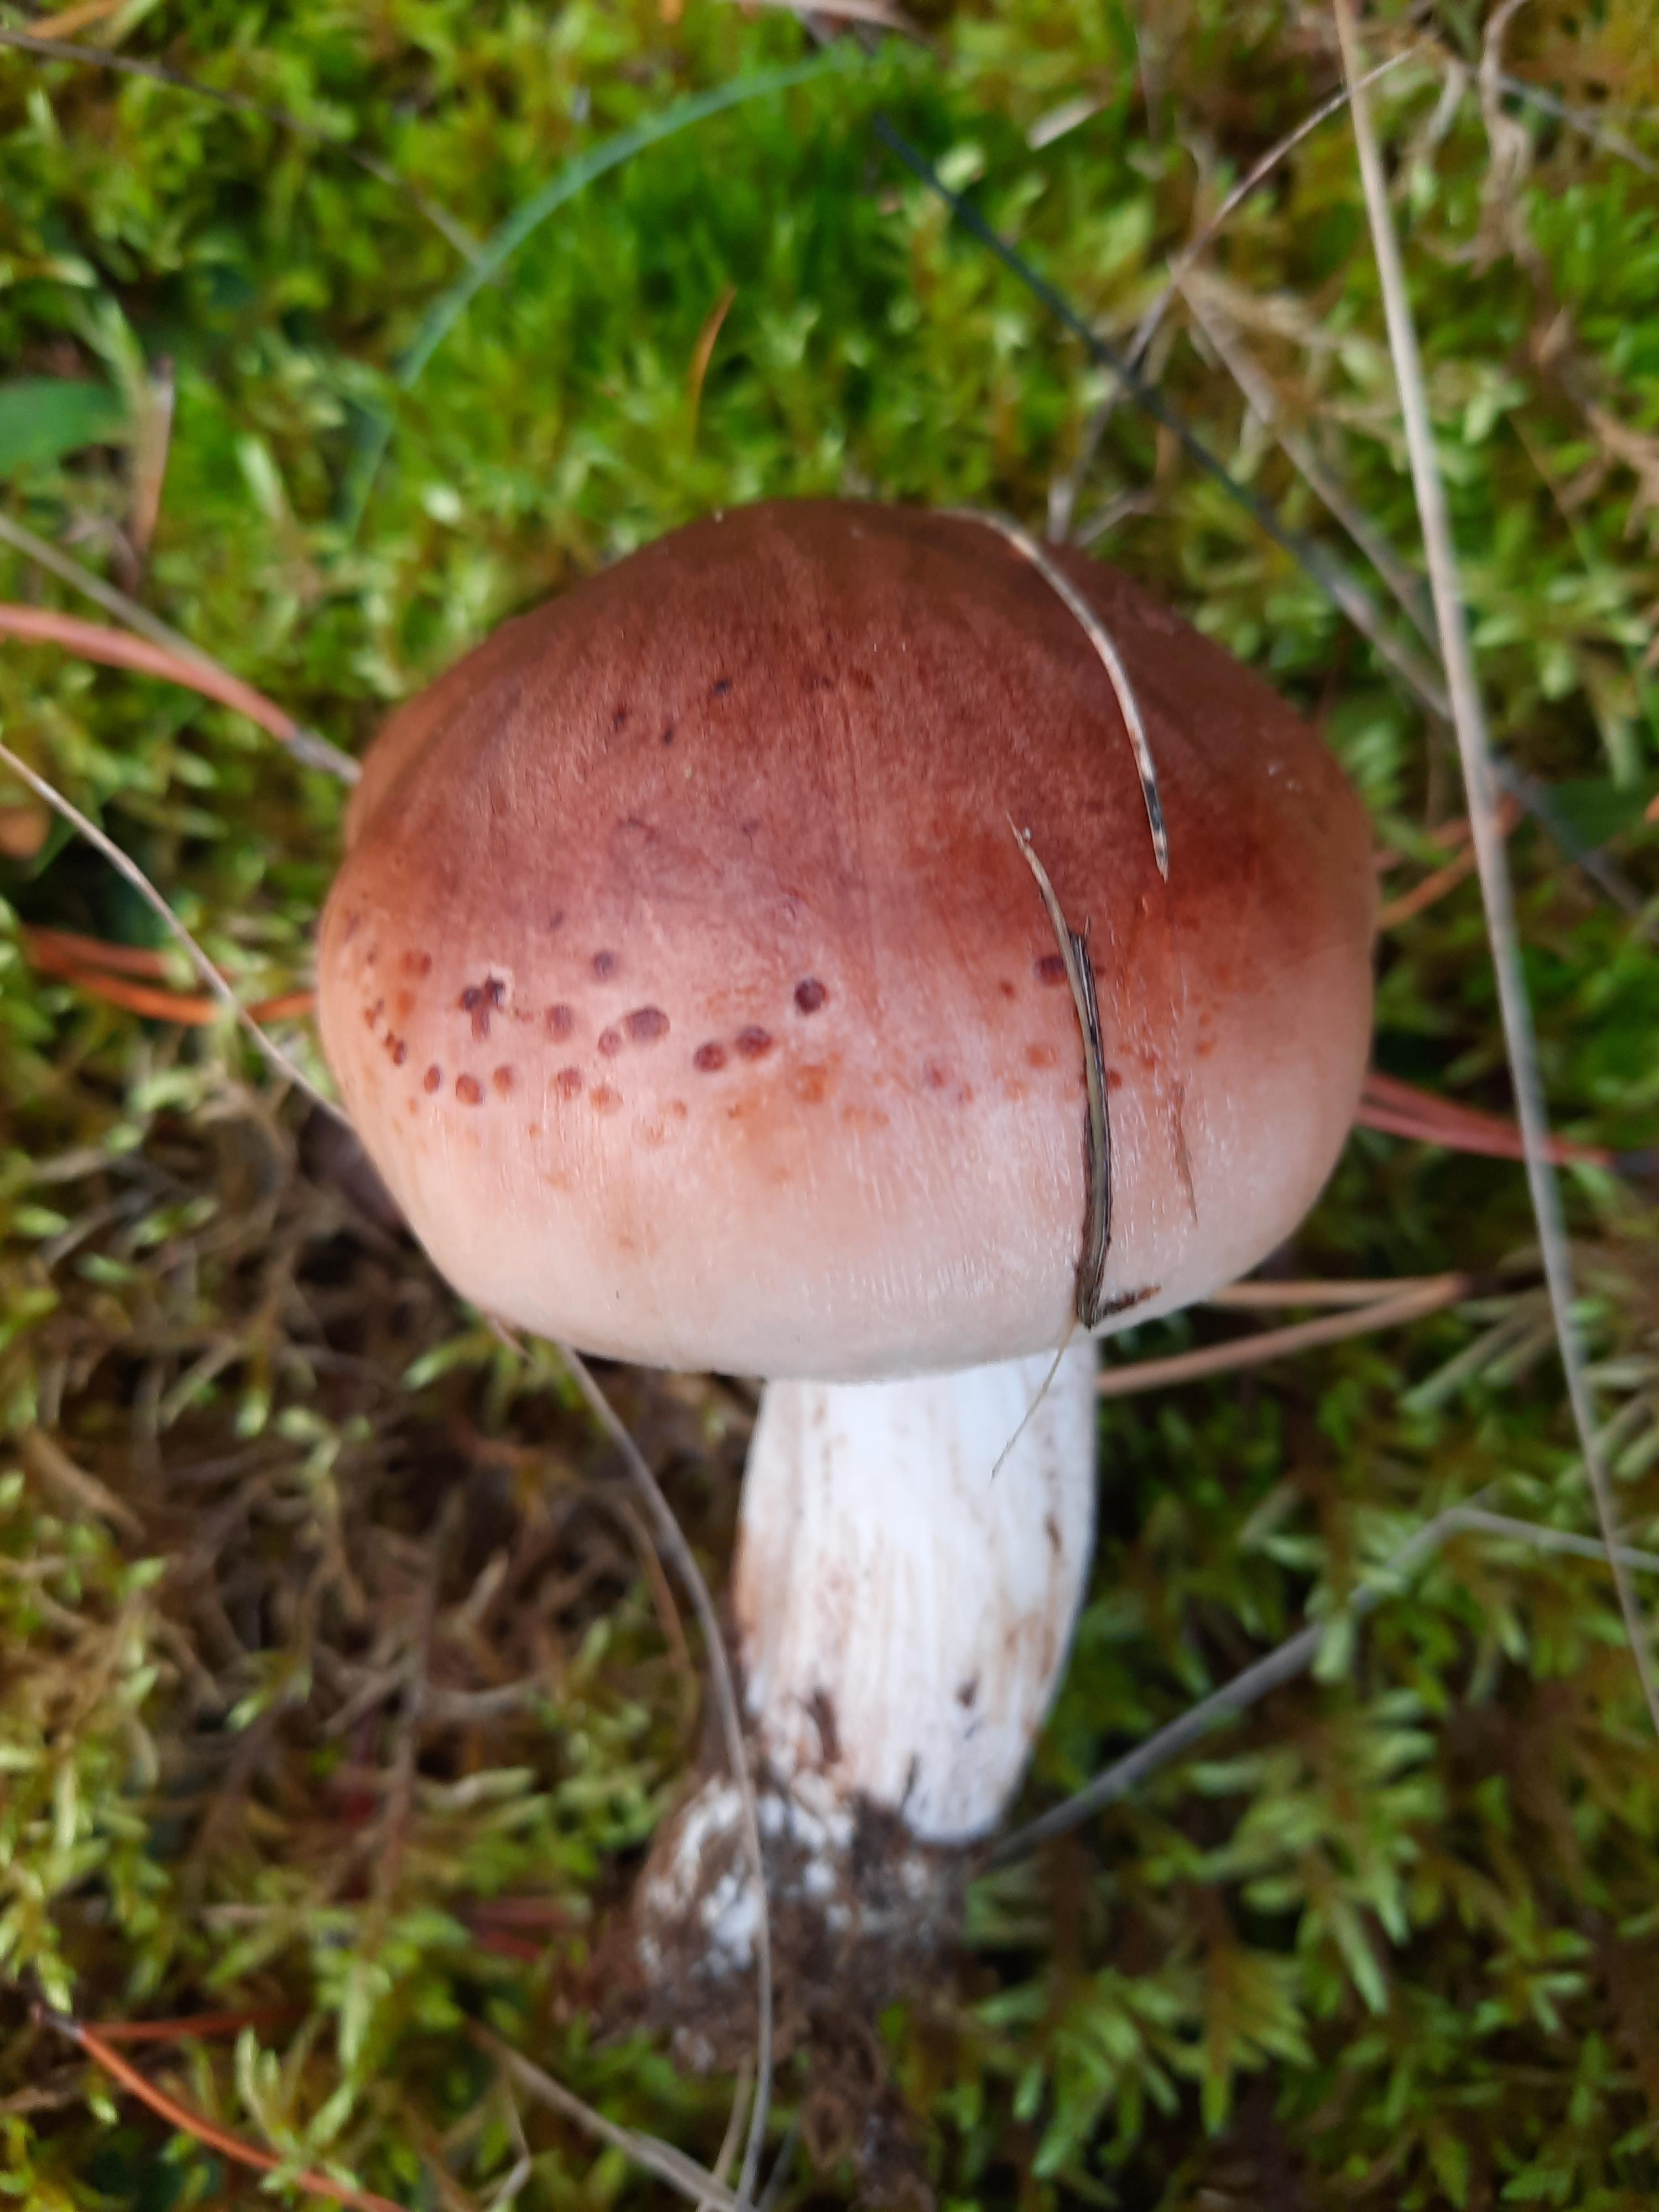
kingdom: Fungi
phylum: Basidiomycota
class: Agaricomycetes
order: Agaricales
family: Tricholomataceae
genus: Tricholoma
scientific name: Tricholoma pessundatum
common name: dråbeplettet ridderhat
